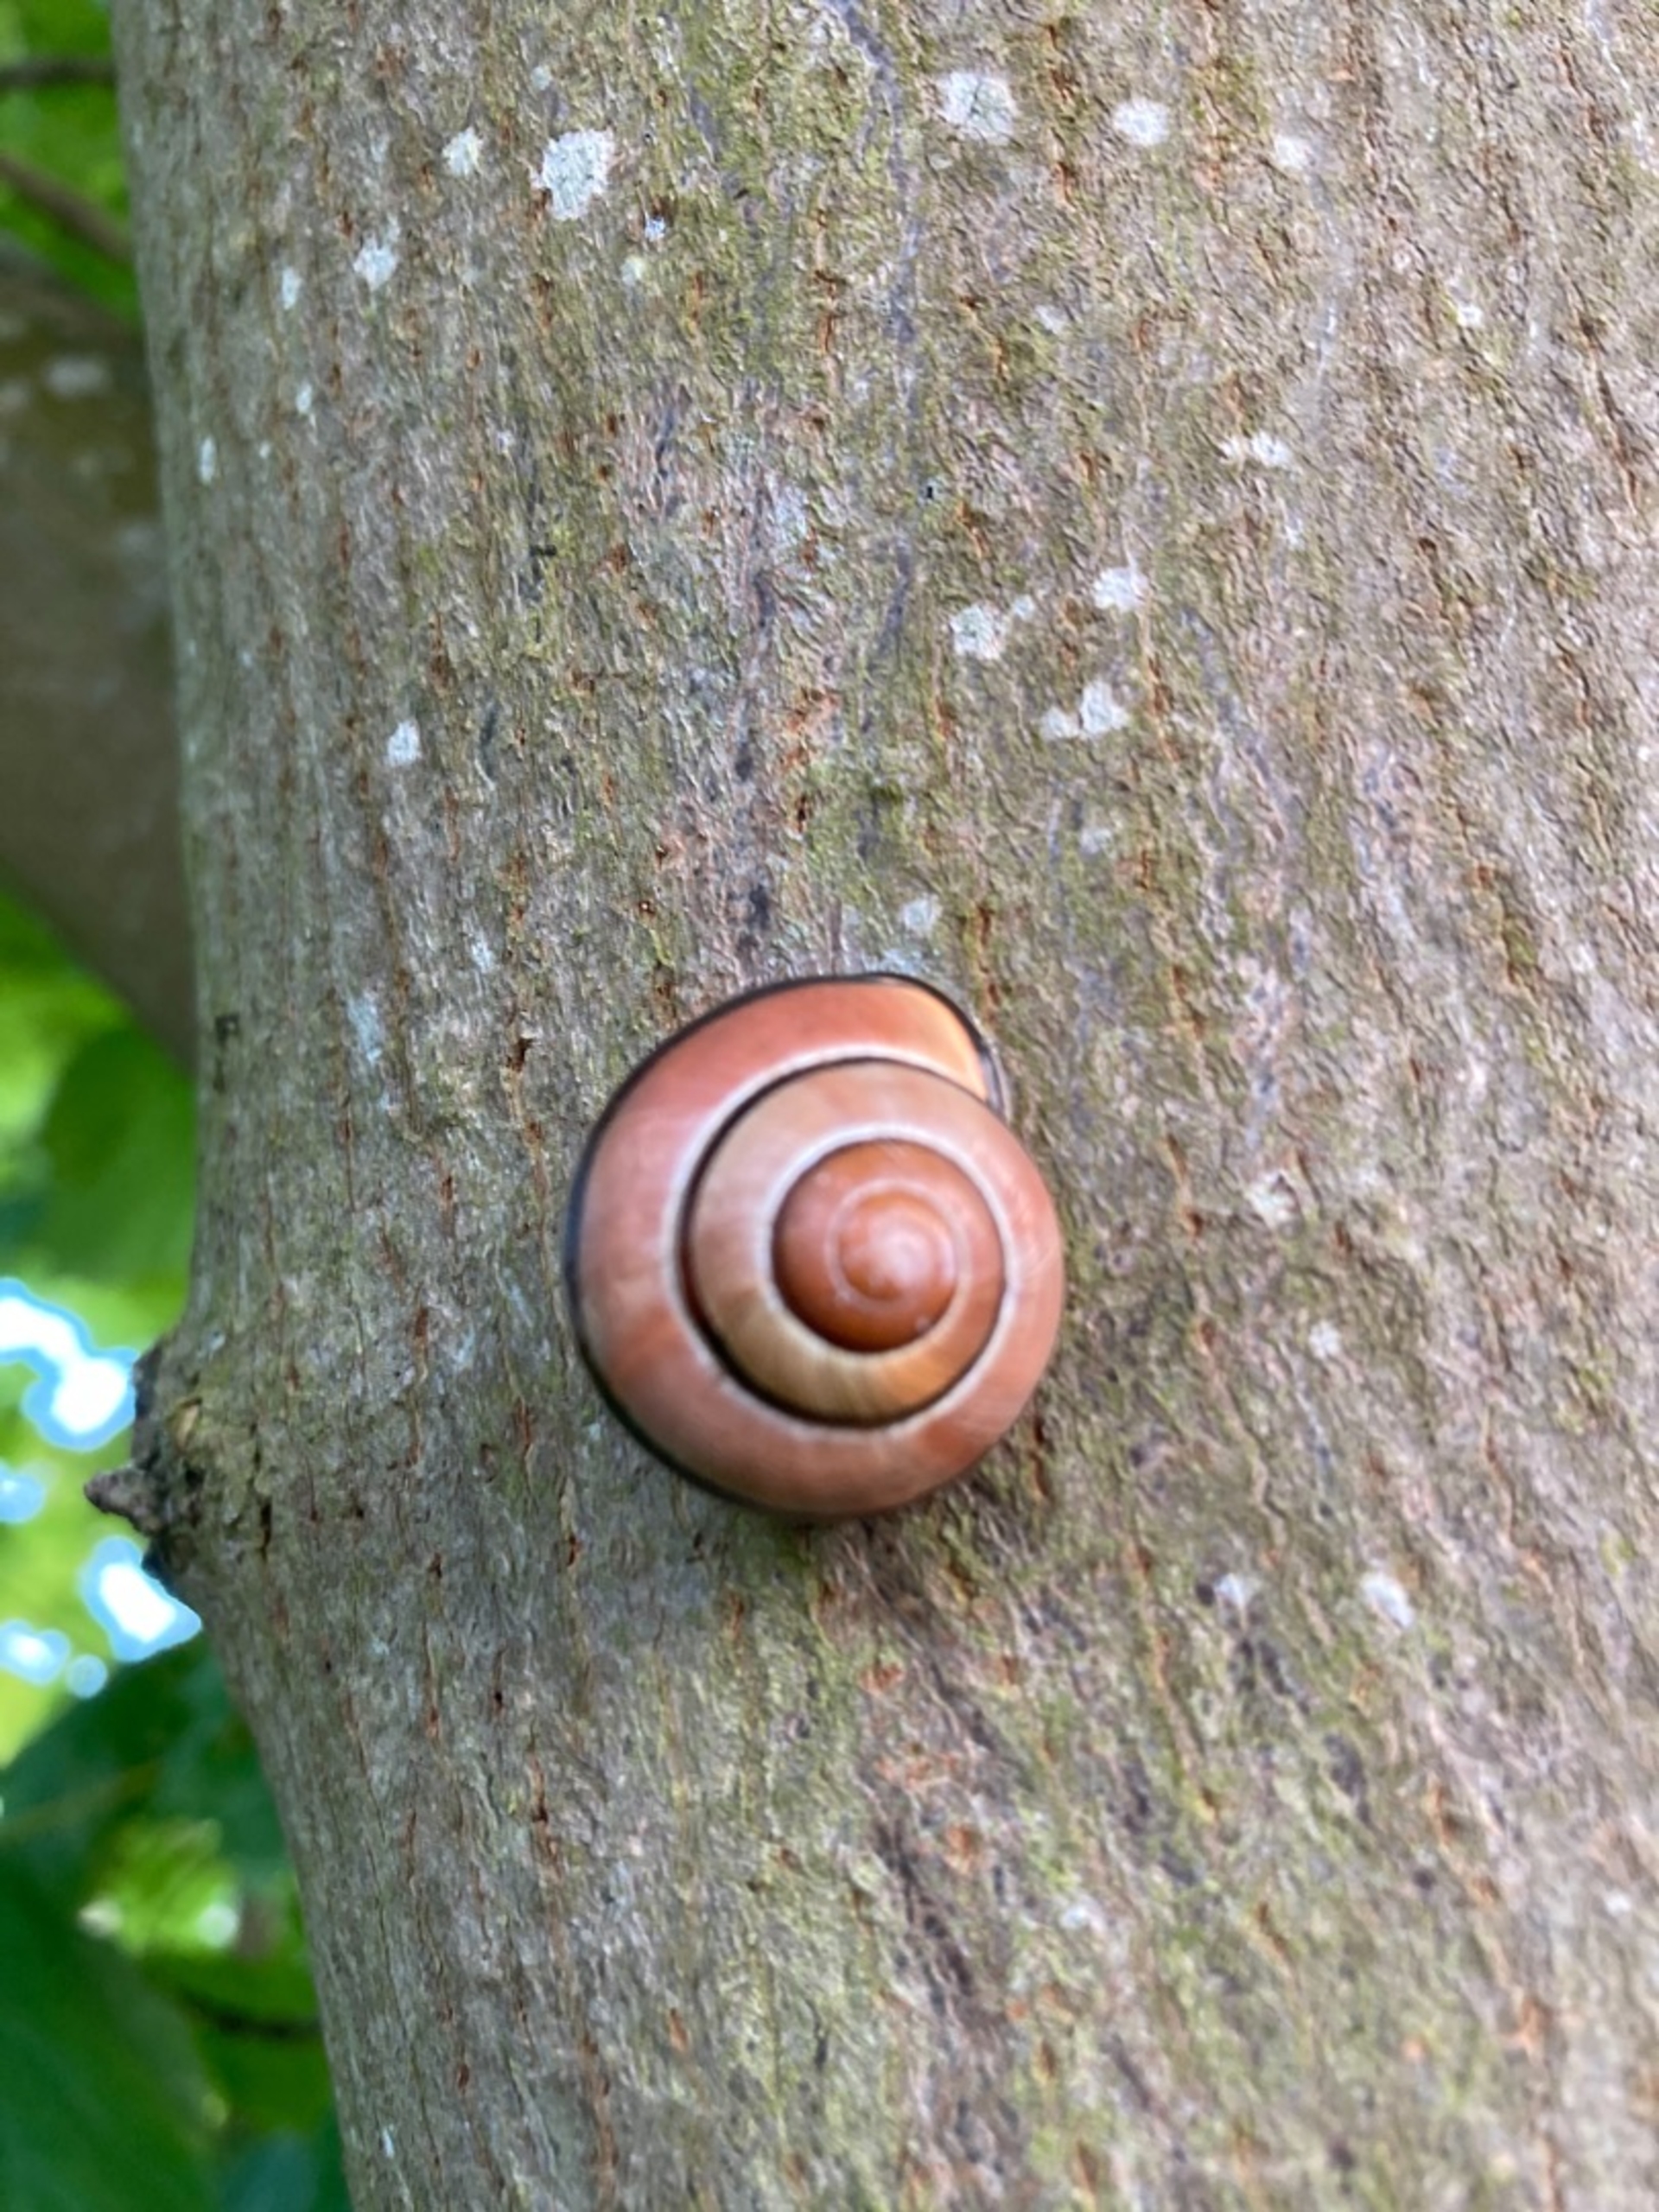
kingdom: Animalia
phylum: Mollusca
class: Gastropoda
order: Stylommatophora
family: Helicidae
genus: Cepaea
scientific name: Cepaea nemoralis
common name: Lundsnegl
